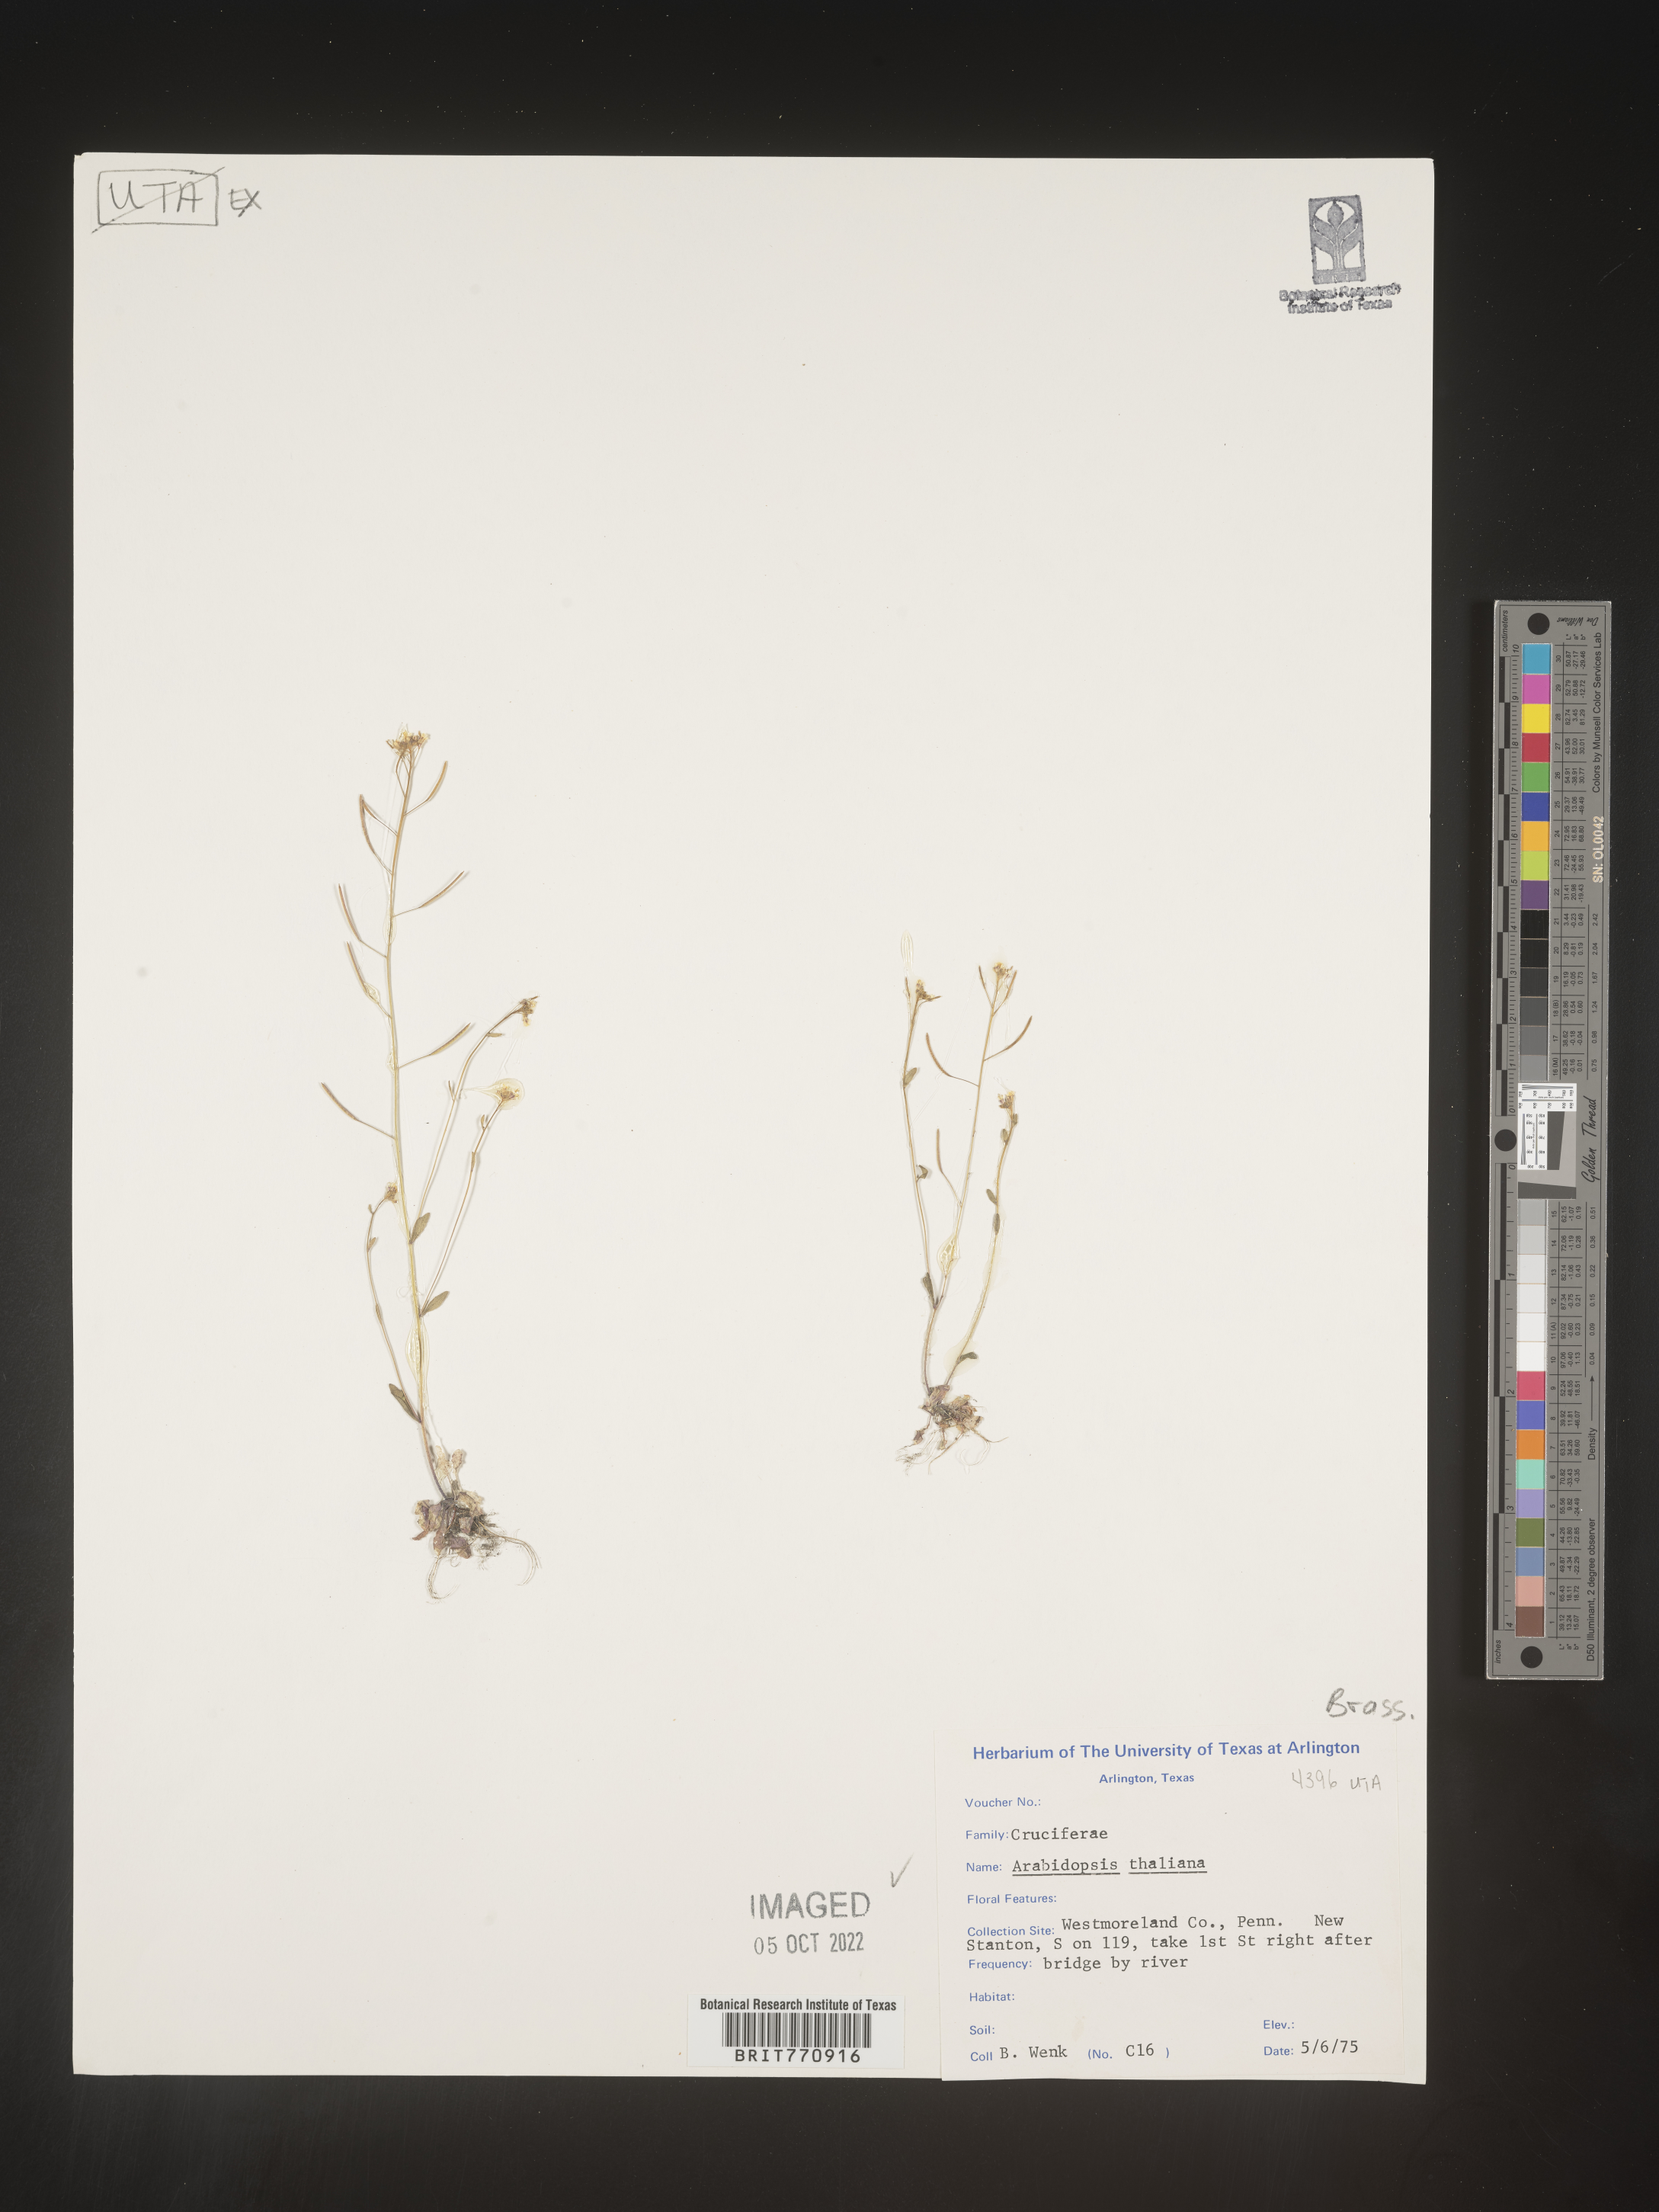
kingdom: Plantae
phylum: Tracheophyta
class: Magnoliopsida
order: Brassicales
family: Brassicaceae
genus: Arabidopsis
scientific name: Arabidopsis thaliana
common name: Thale cress
